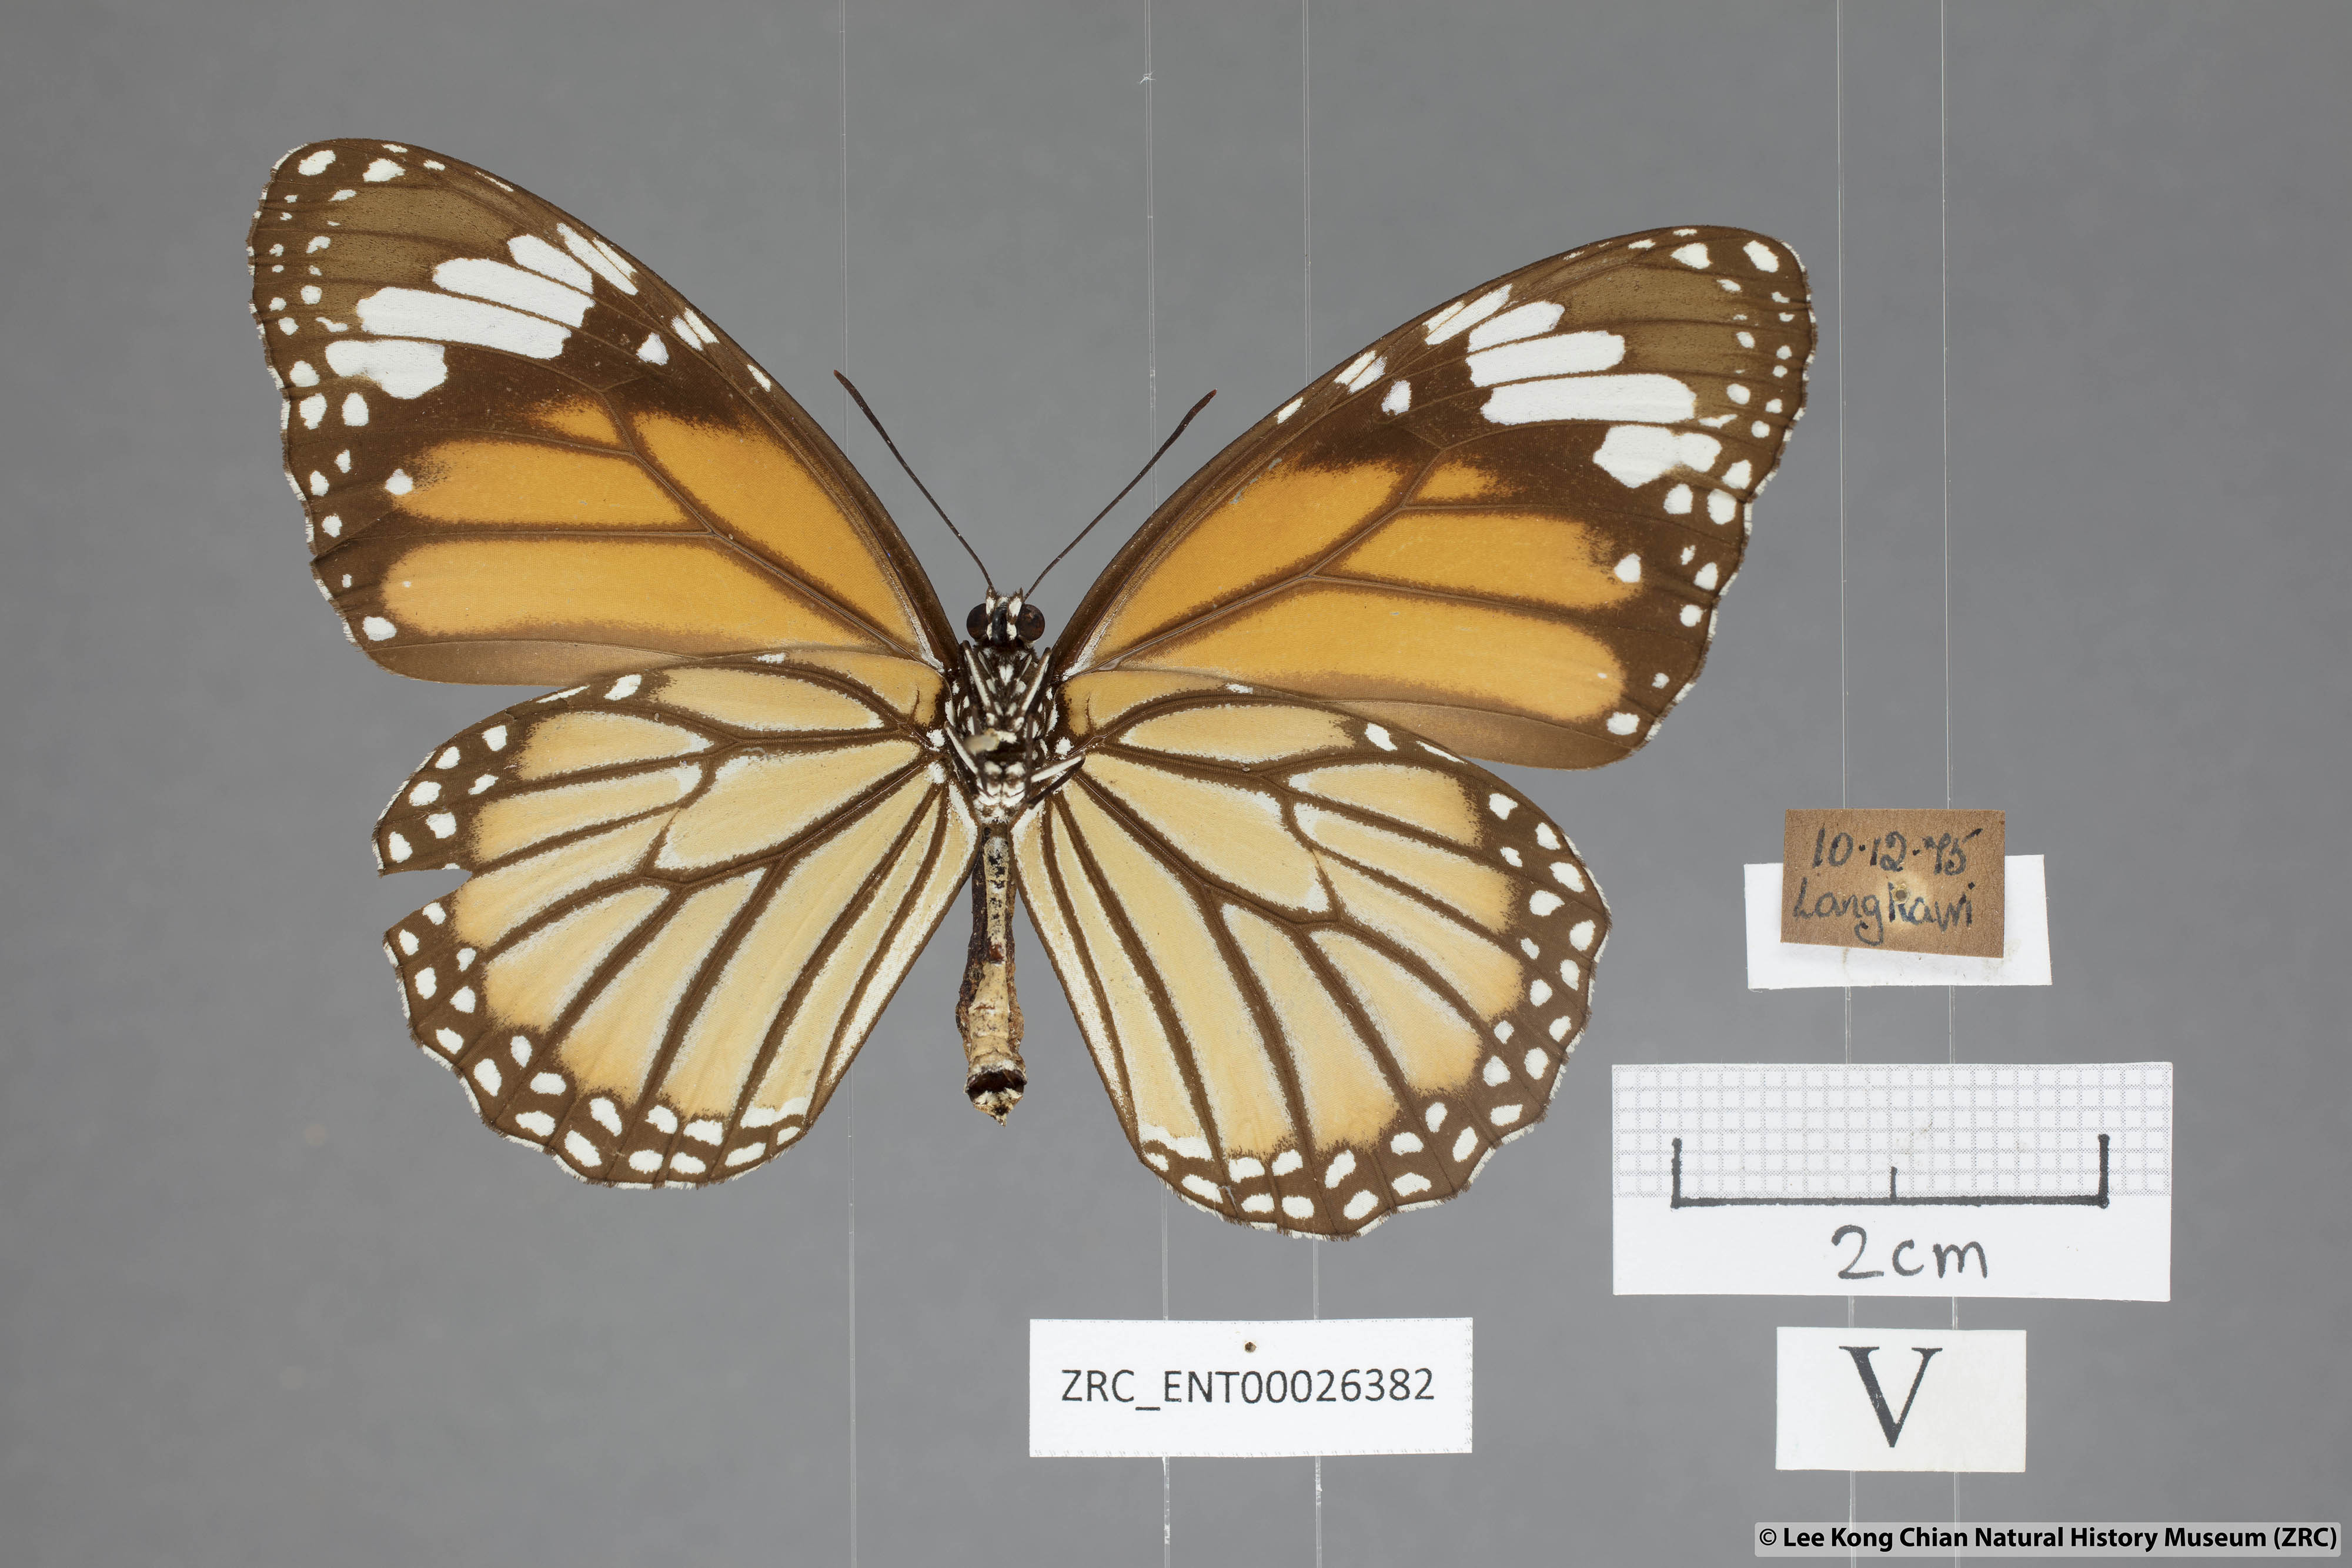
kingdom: Animalia
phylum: Arthropoda
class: Insecta
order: Lepidoptera
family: Nymphalidae
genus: Danaus
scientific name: Danaus genutia
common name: Common tiger butterfly
